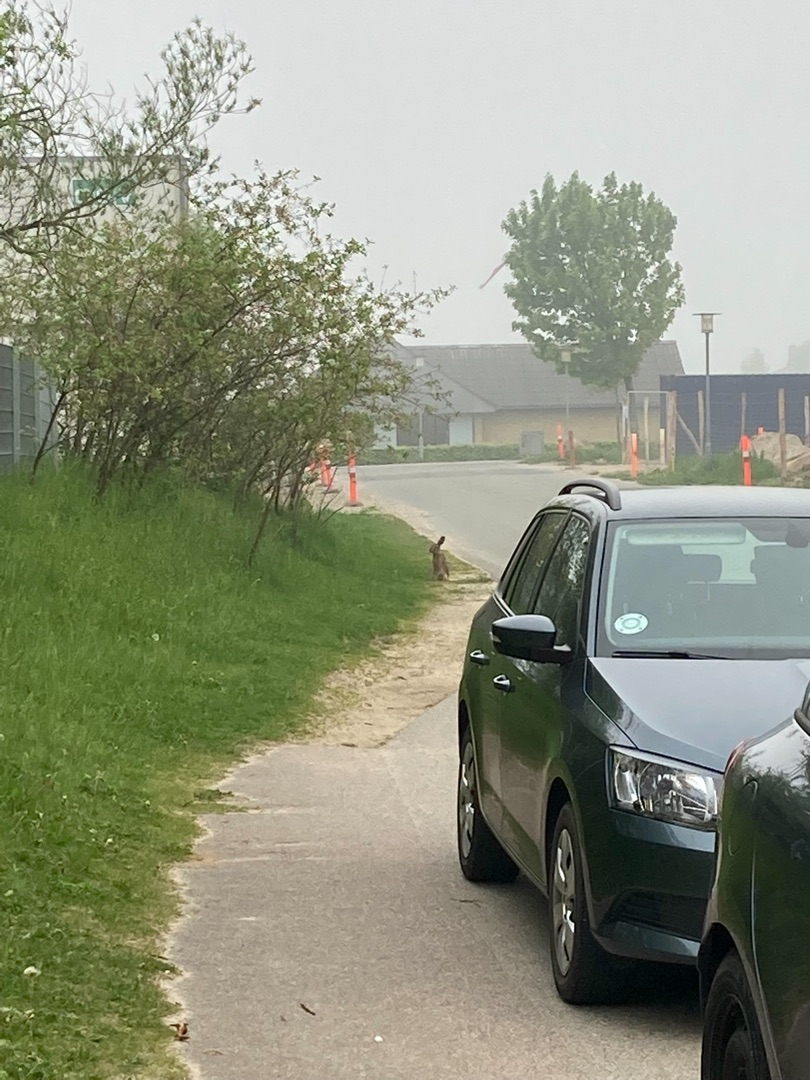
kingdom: Animalia
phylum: Chordata
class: Mammalia
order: Lagomorpha
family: Leporidae
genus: Lepus
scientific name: Lepus europaeus
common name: Hare
